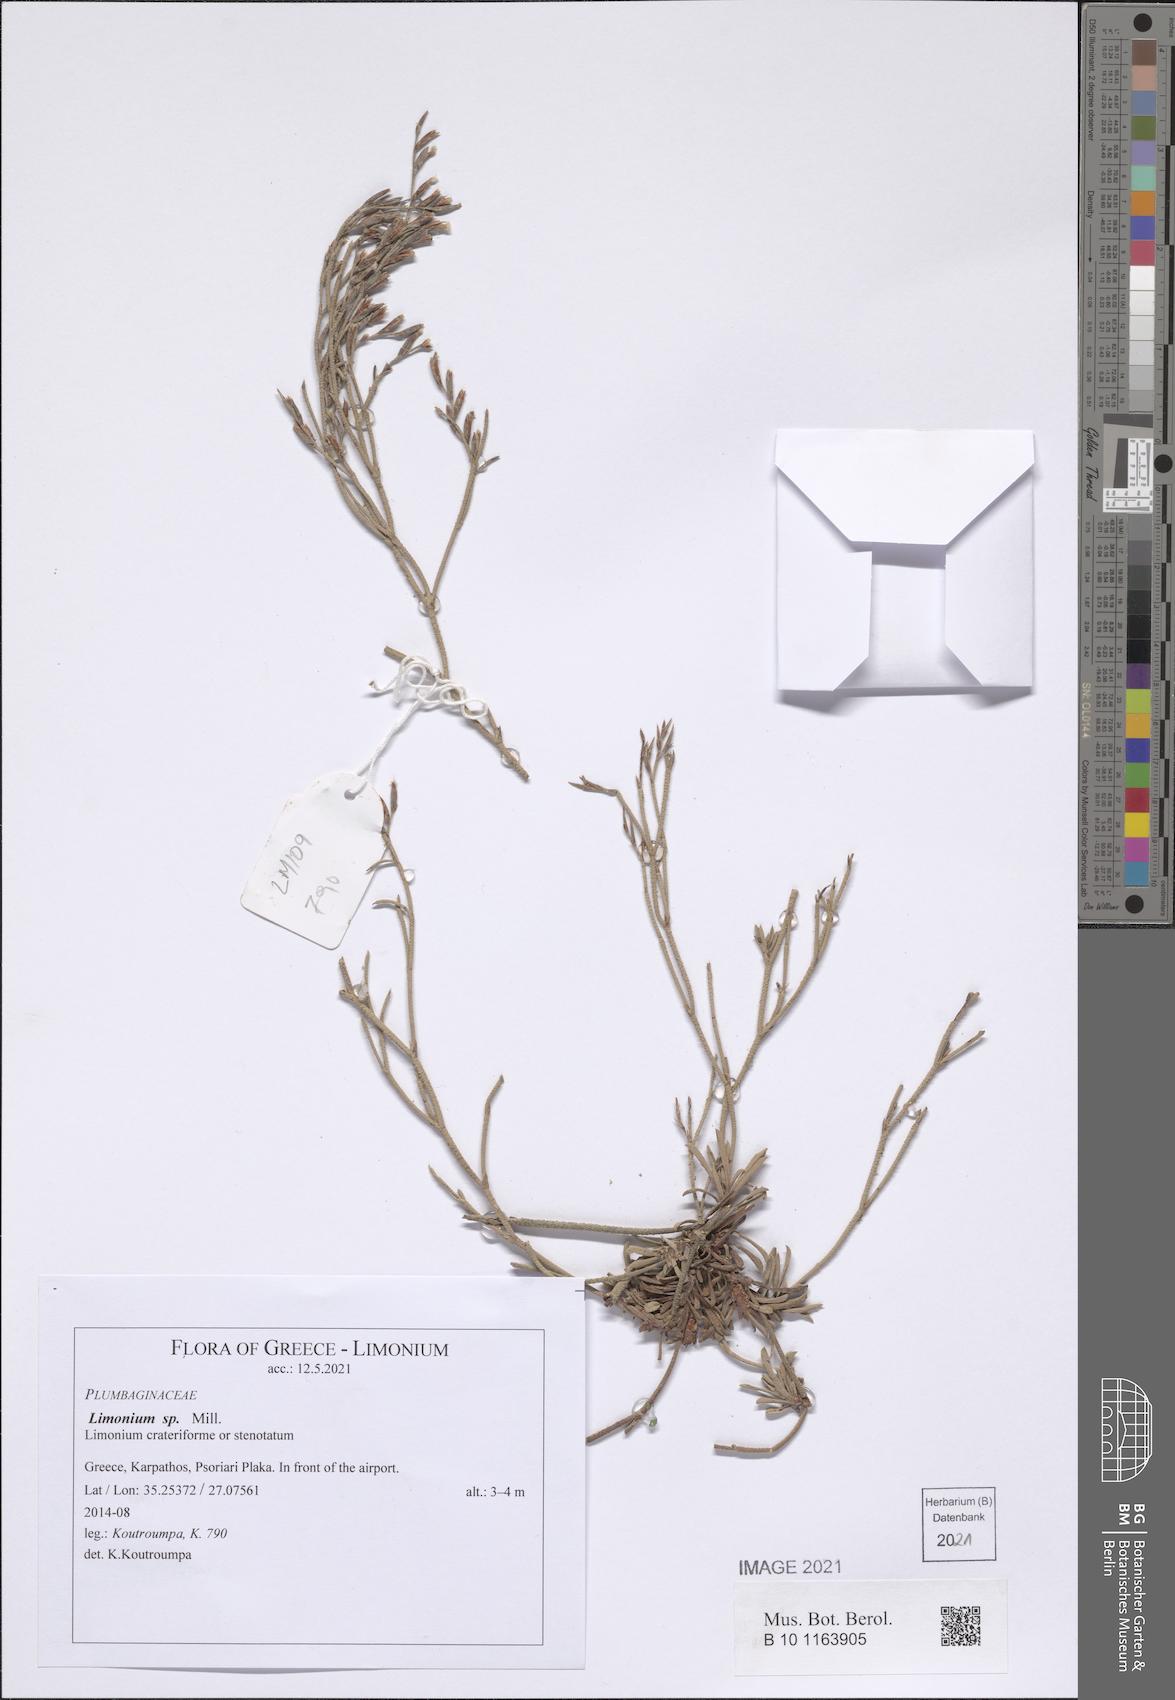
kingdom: Plantae
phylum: Tracheophyta
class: Magnoliopsida
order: Caryophyllales
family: Plumbaginaceae
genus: Limonium
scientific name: Limonium
